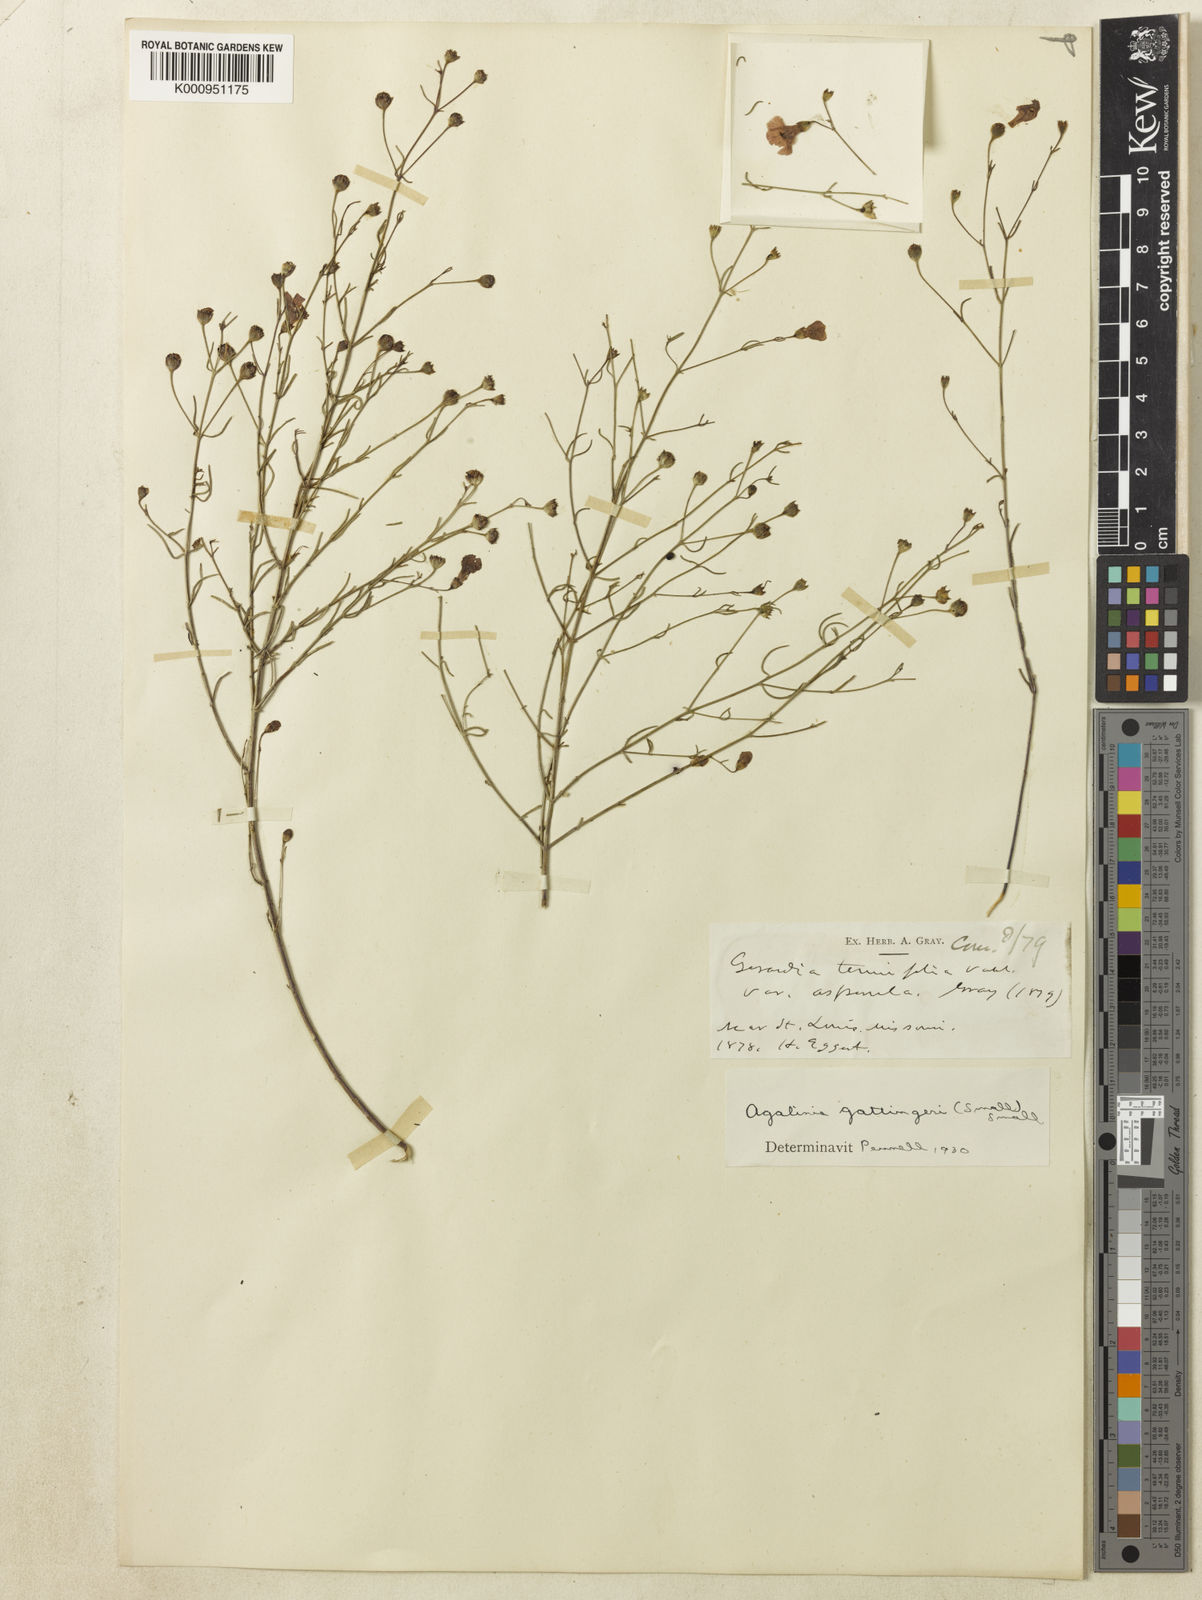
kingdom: Plantae
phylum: Tracheophyta
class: Magnoliopsida
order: Lamiales
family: Orobanchaceae
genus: Agalinis
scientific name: Agalinis
